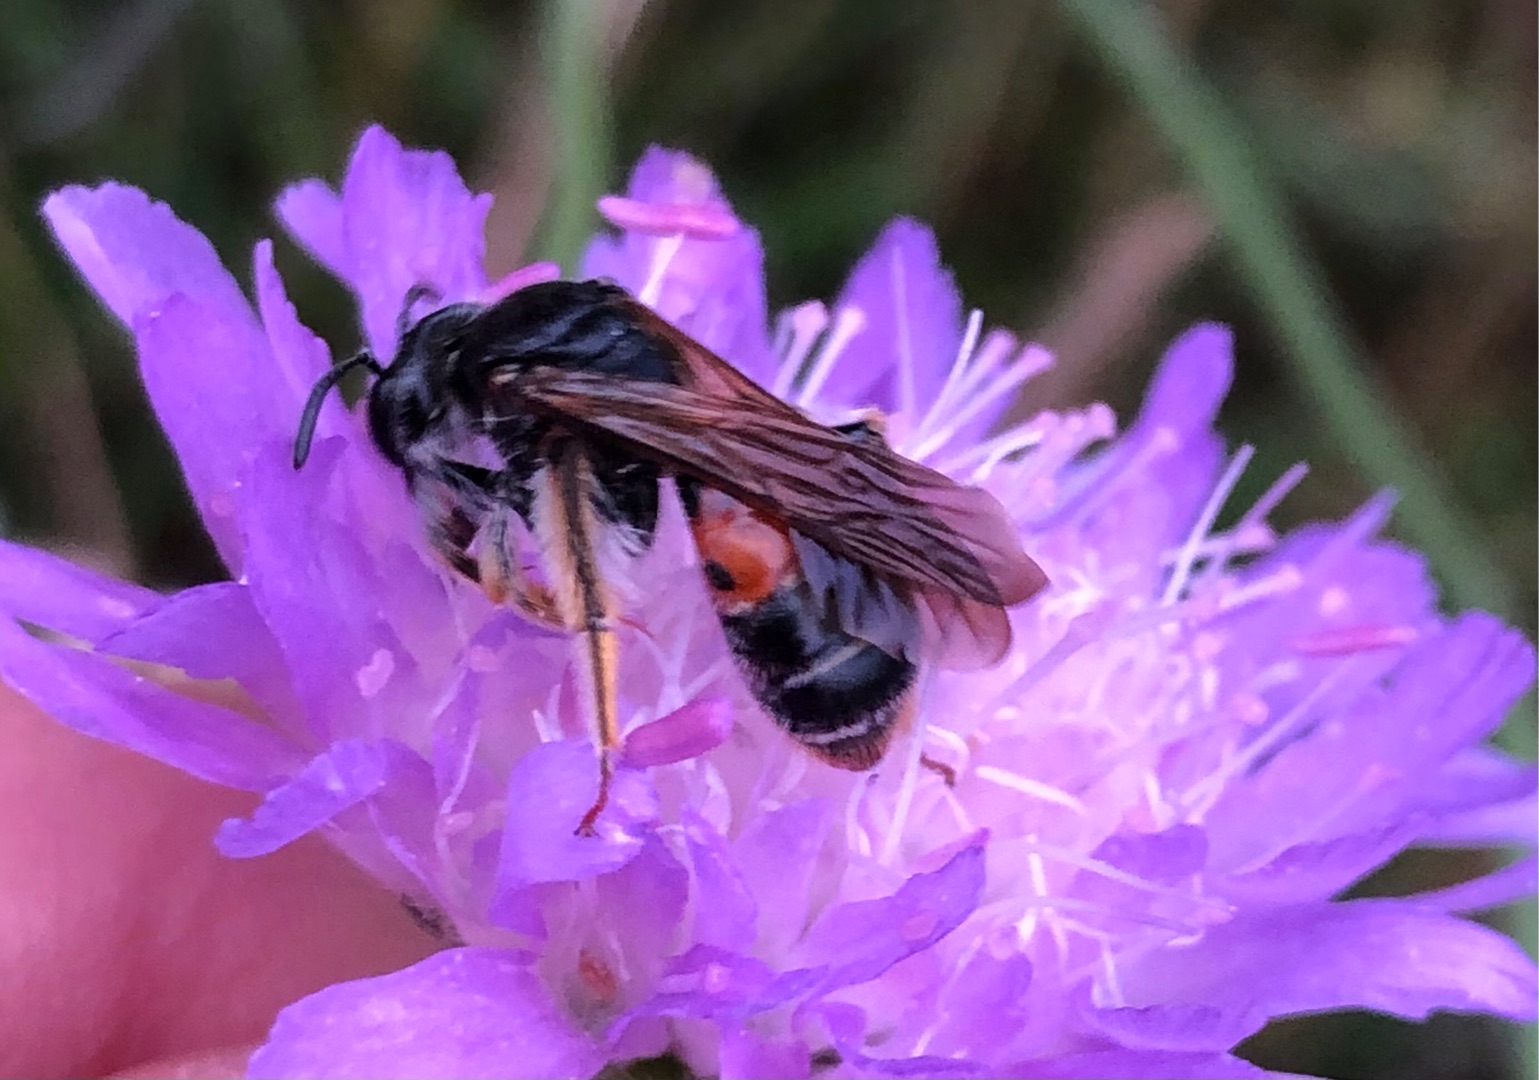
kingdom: Animalia
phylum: Arthropoda
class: Insecta
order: Hymenoptera
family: Andrenidae
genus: Andrena
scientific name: Andrena hattorfiana
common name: Blåhatjordbi
